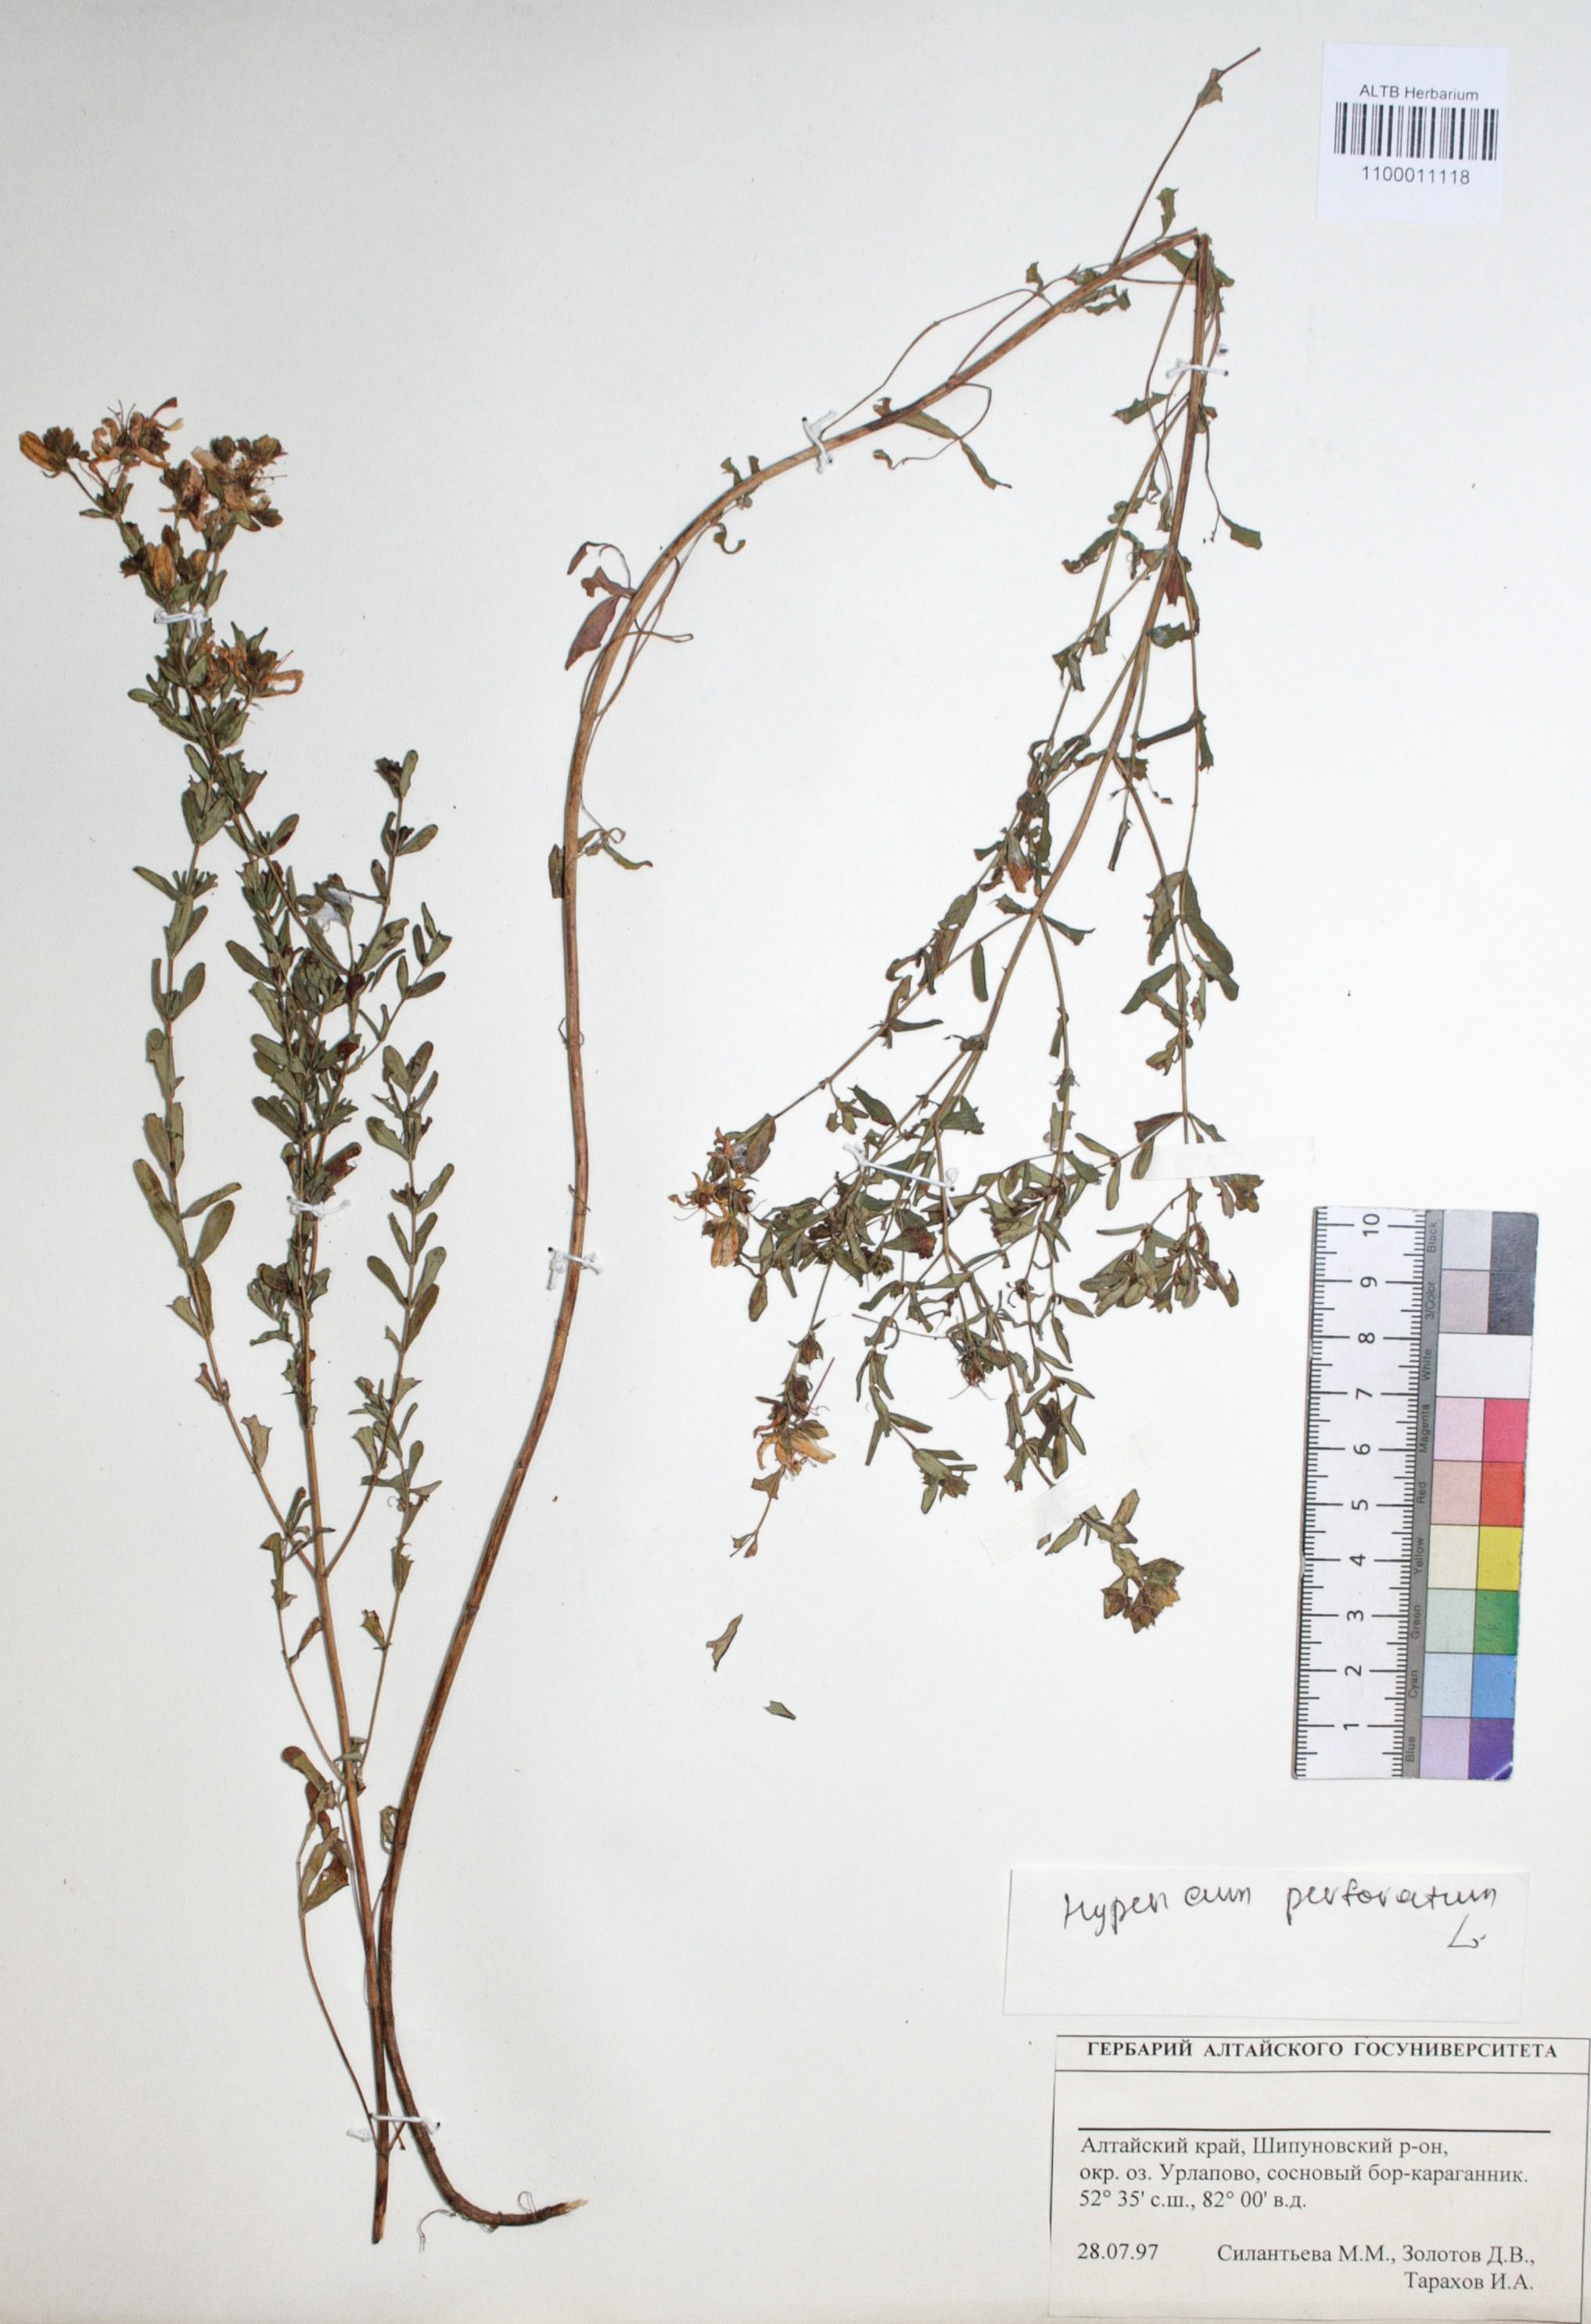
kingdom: Plantae
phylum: Tracheophyta
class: Magnoliopsida
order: Malpighiales
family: Hypericaceae
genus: Hypericum
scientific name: Hypericum perforatum
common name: Common st. johnswort
